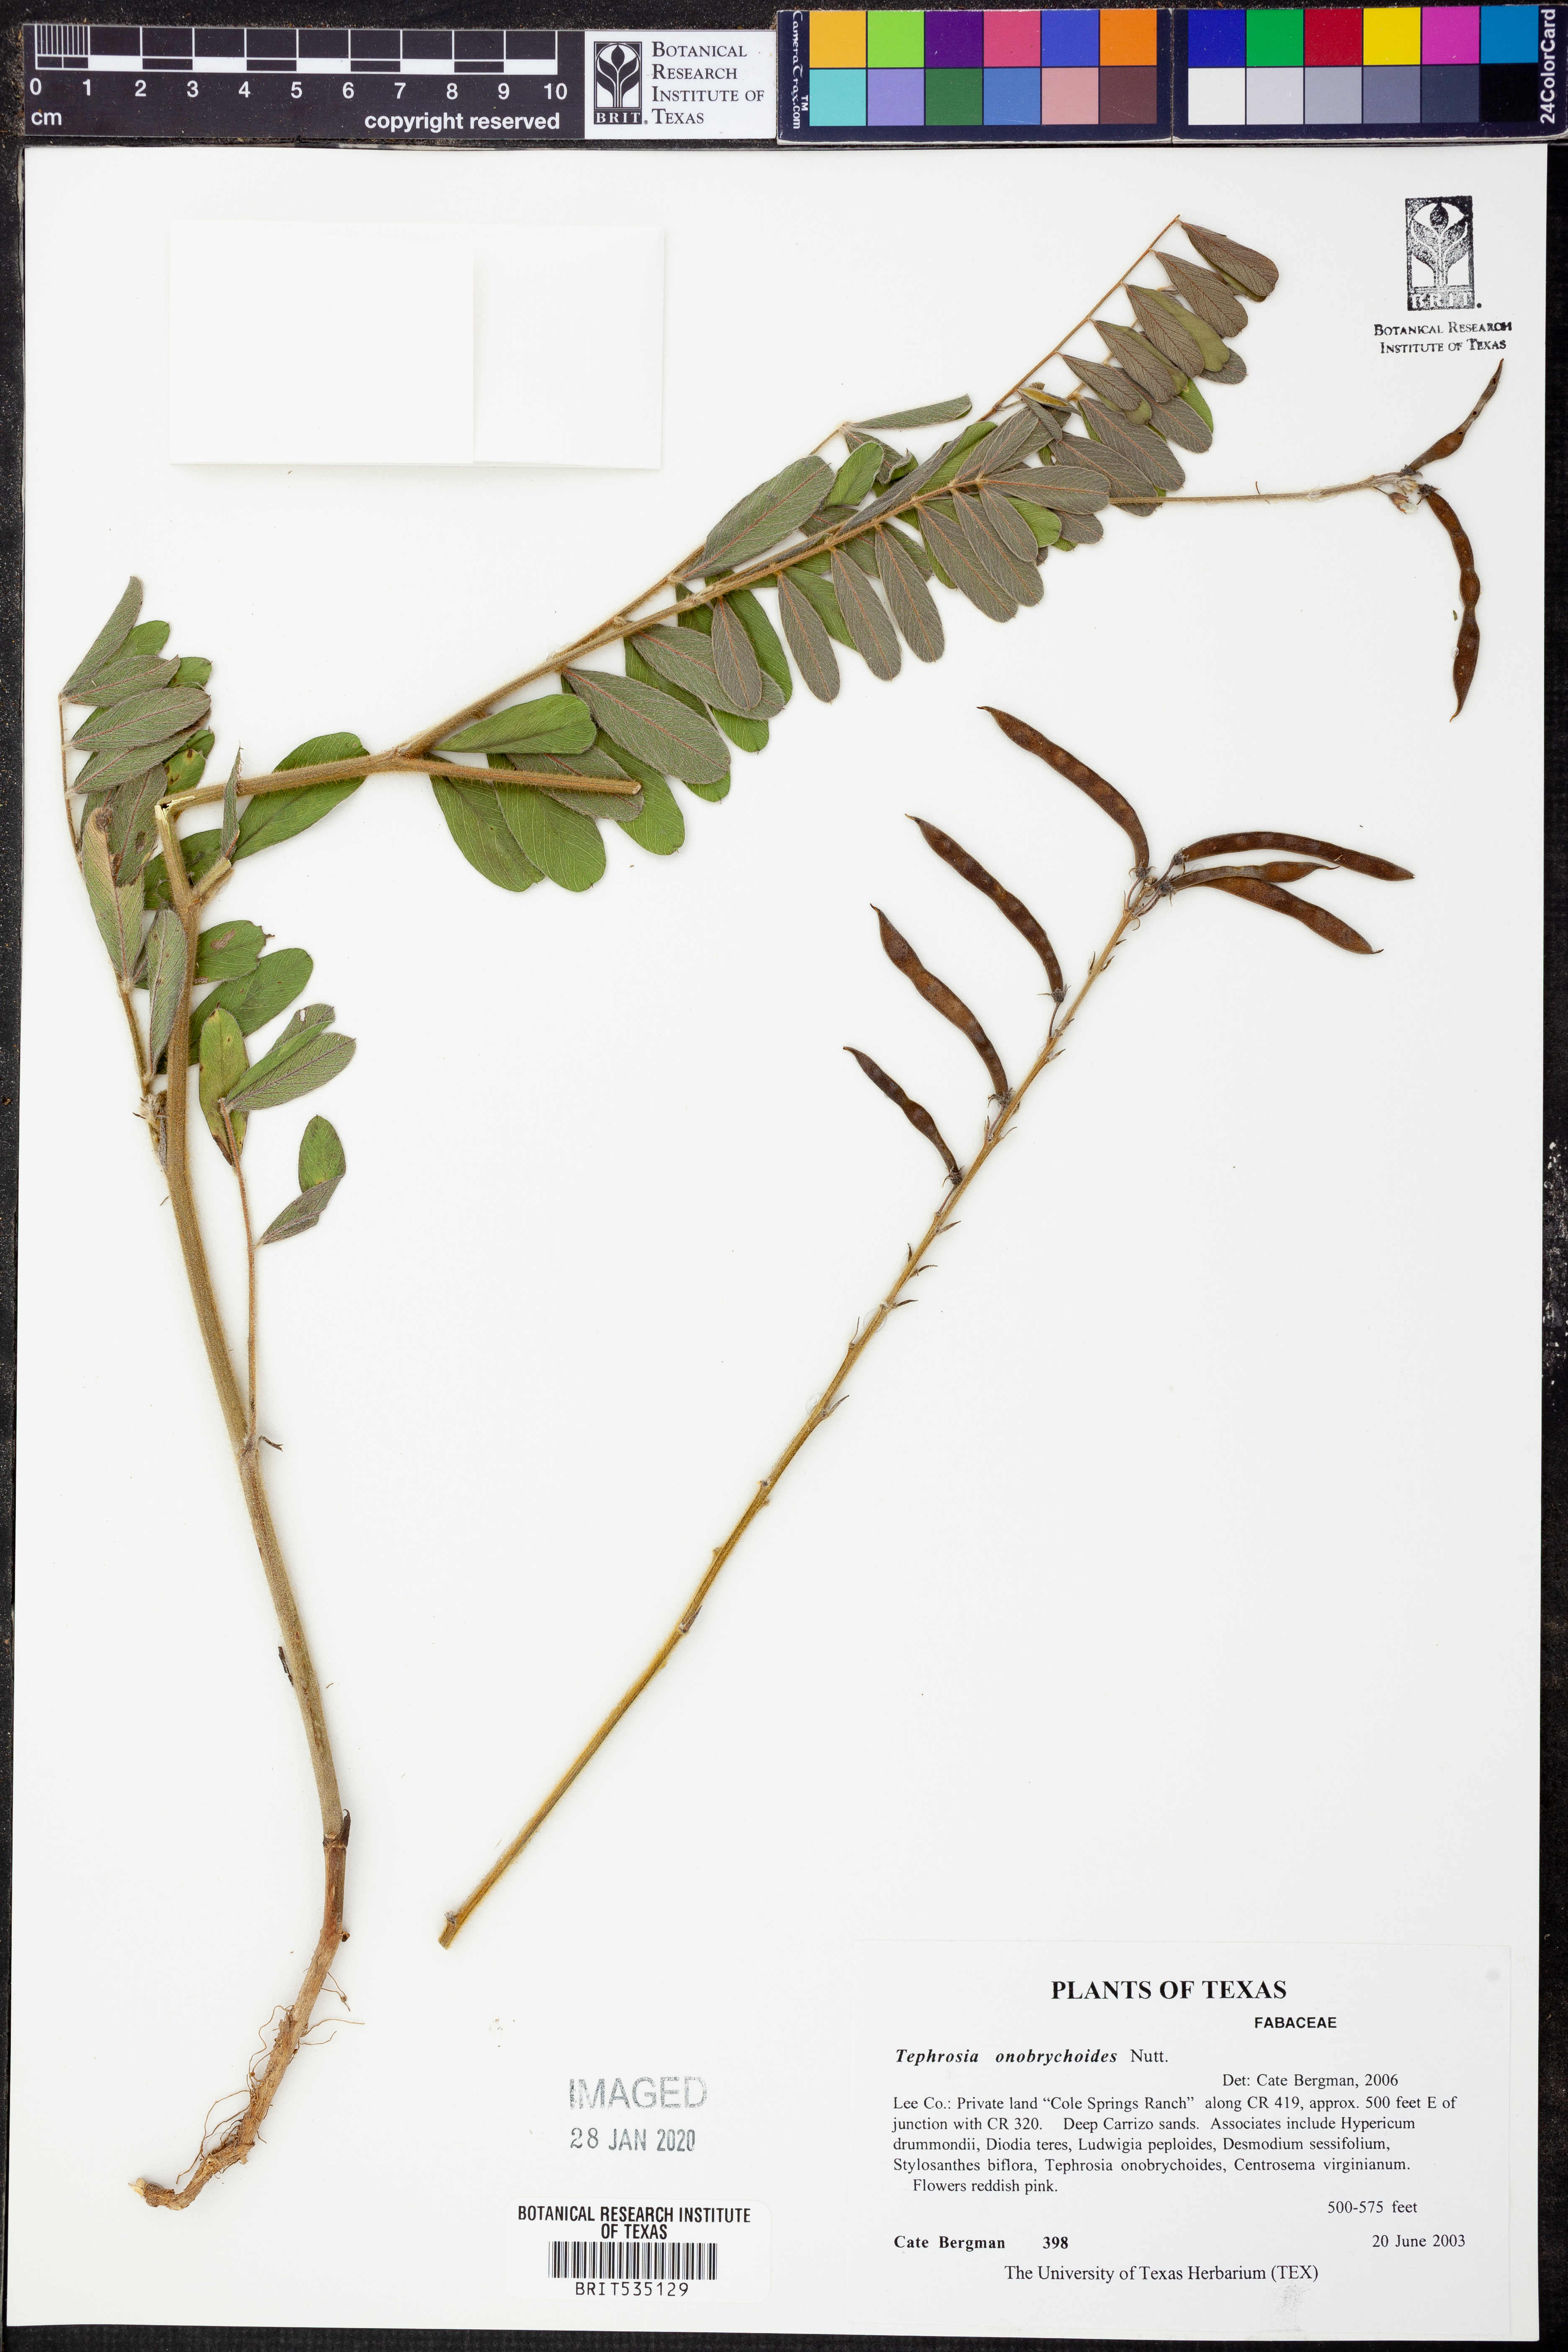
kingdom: Plantae
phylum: Tracheophyta
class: Magnoliopsida
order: Fabales
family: Fabaceae
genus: Tephrosia
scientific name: Tephrosia onobrychoides
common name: Multi-bloom hoary-pea
